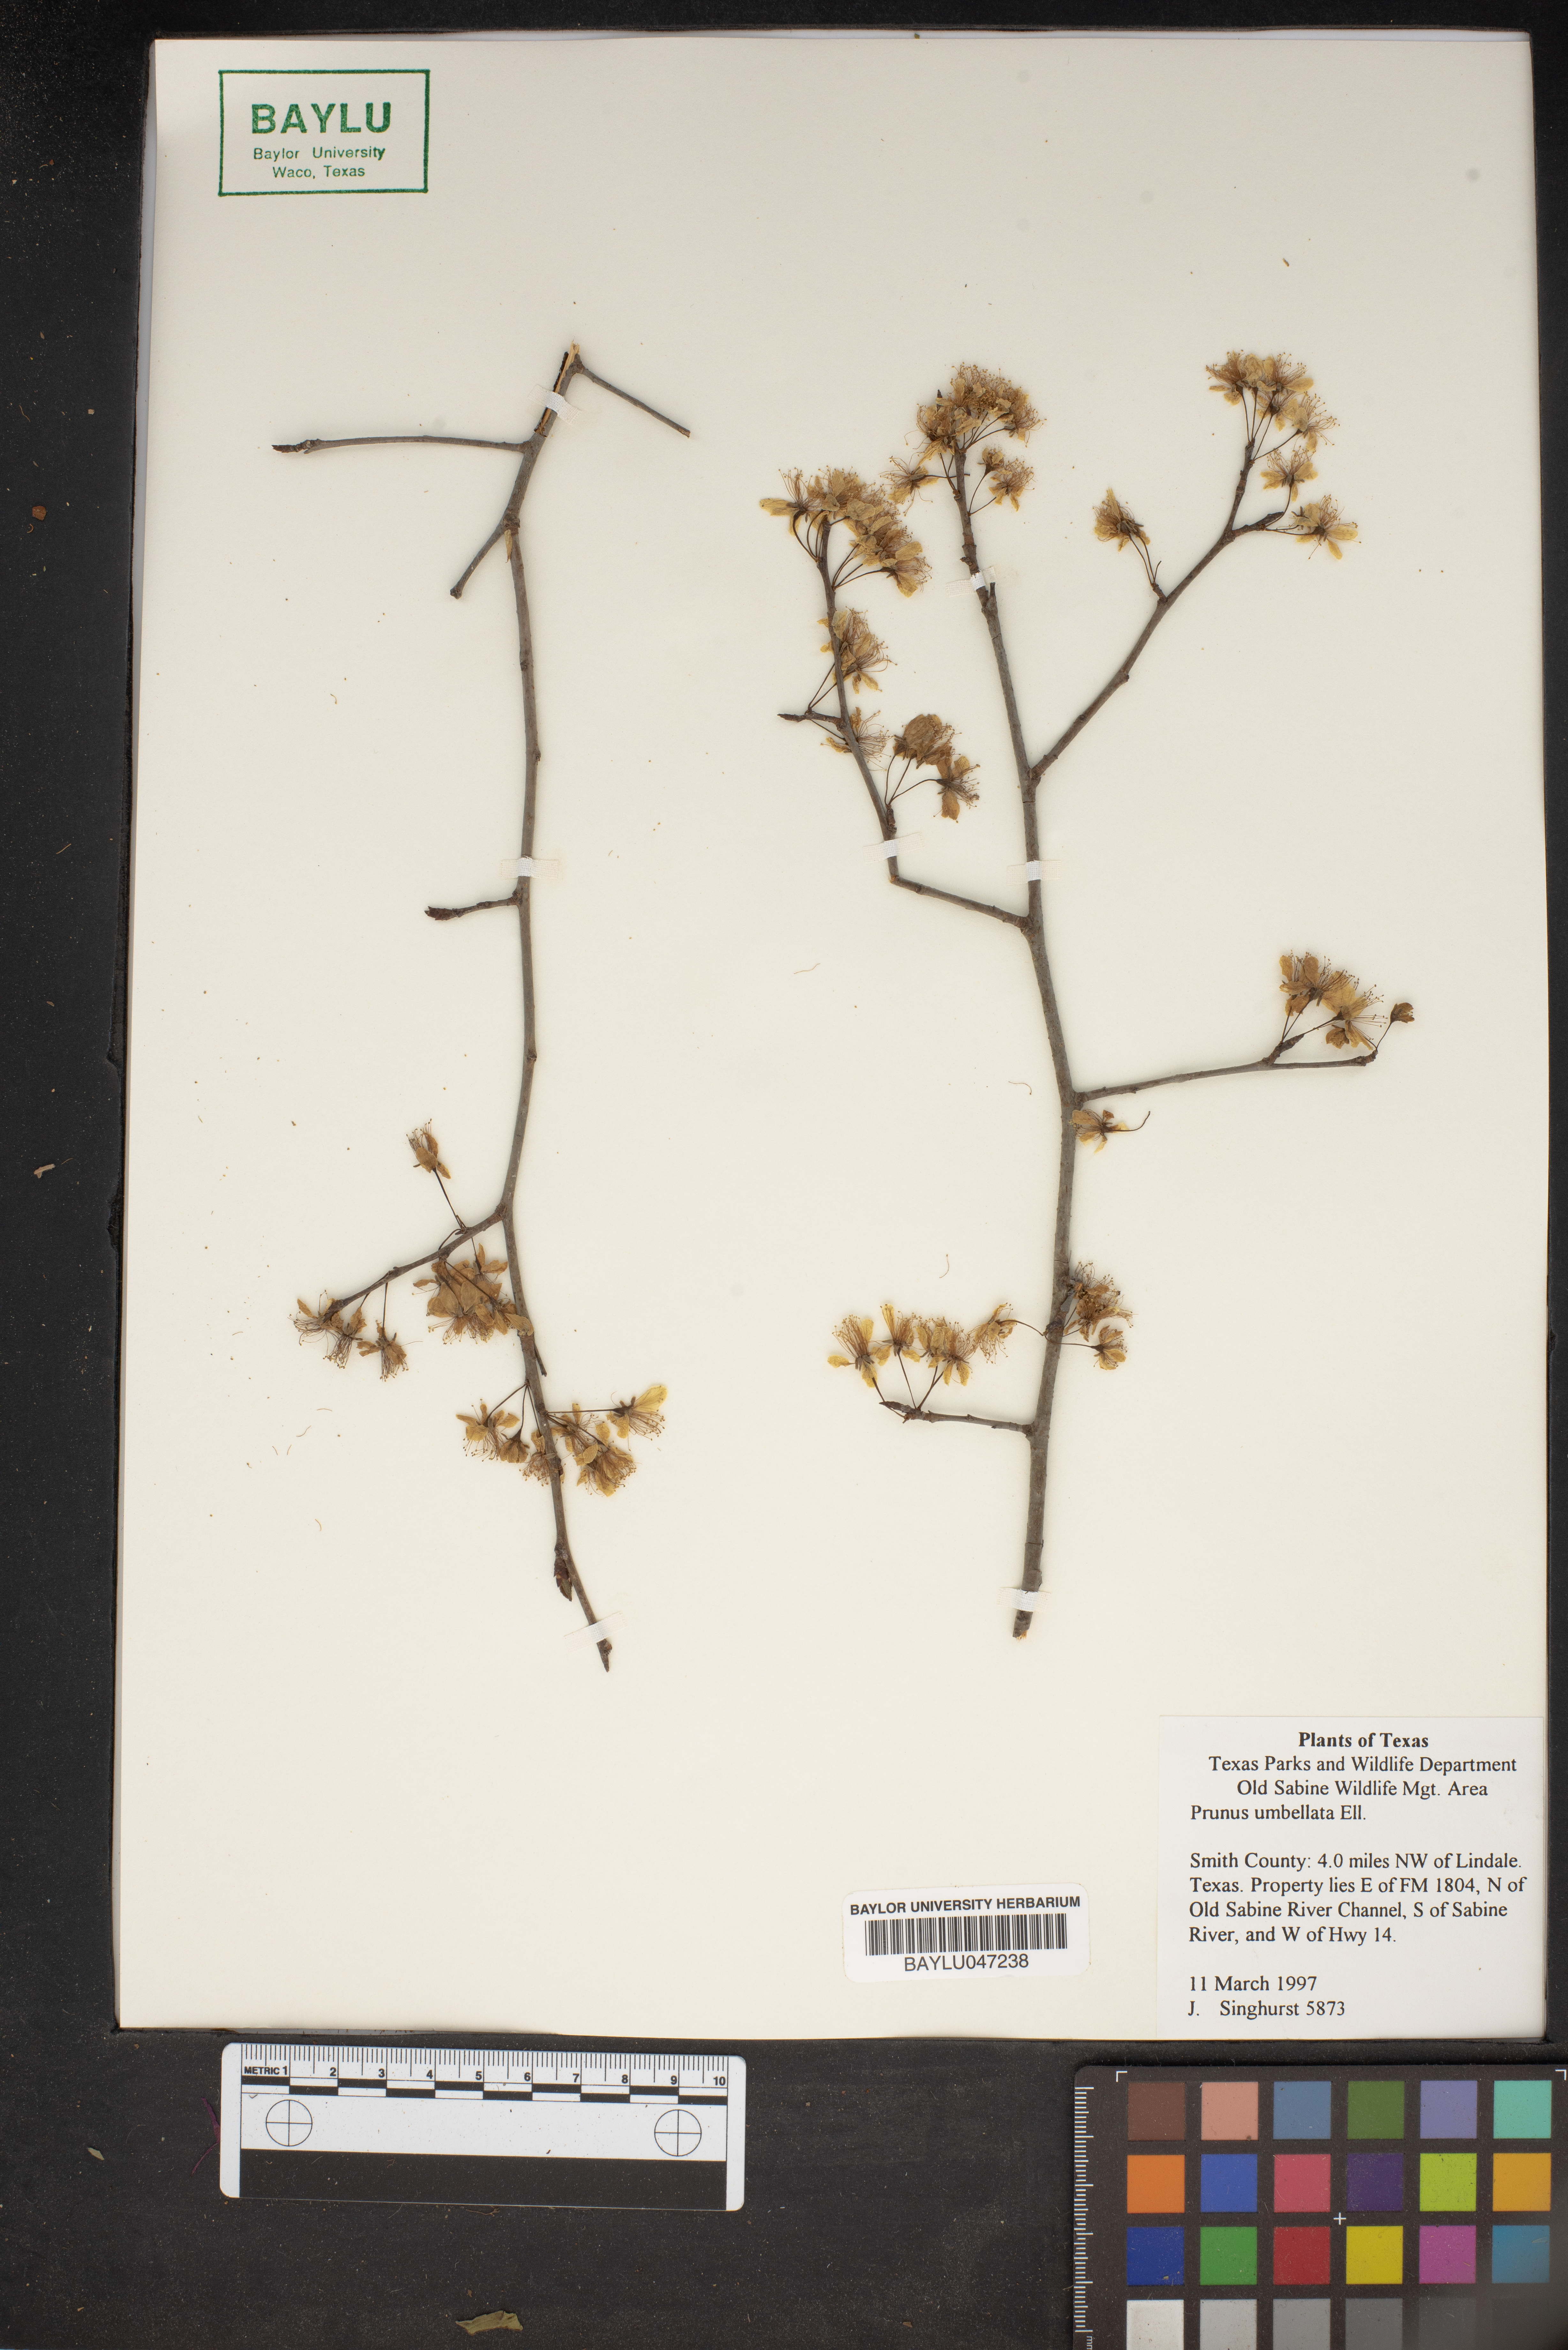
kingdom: Plantae
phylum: Tracheophyta
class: Magnoliopsida
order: Rosales
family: Rosaceae
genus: Prunus
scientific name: Prunus umbellata
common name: Allegheny plum
